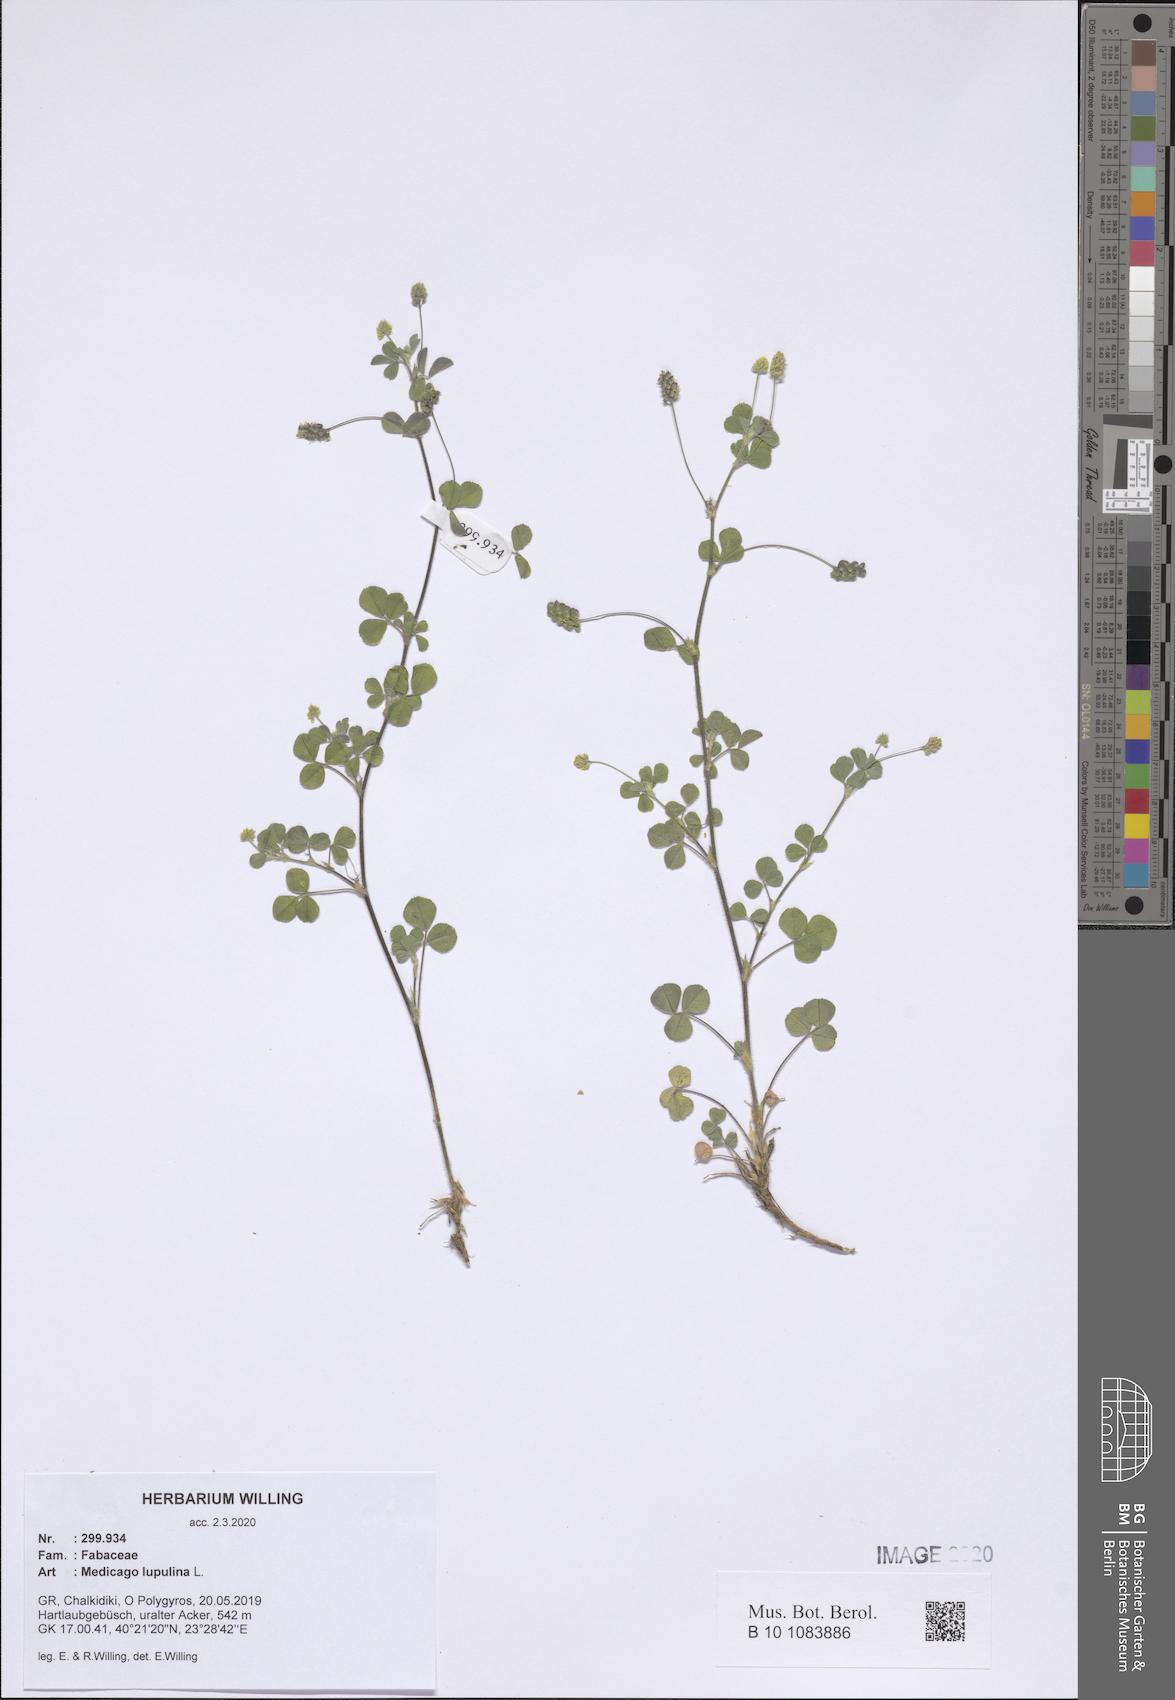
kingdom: Plantae
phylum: Tracheophyta
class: Magnoliopsida
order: Fabales
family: Fabaceae
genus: Medicago
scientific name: Medicago lupulina
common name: Black medick
